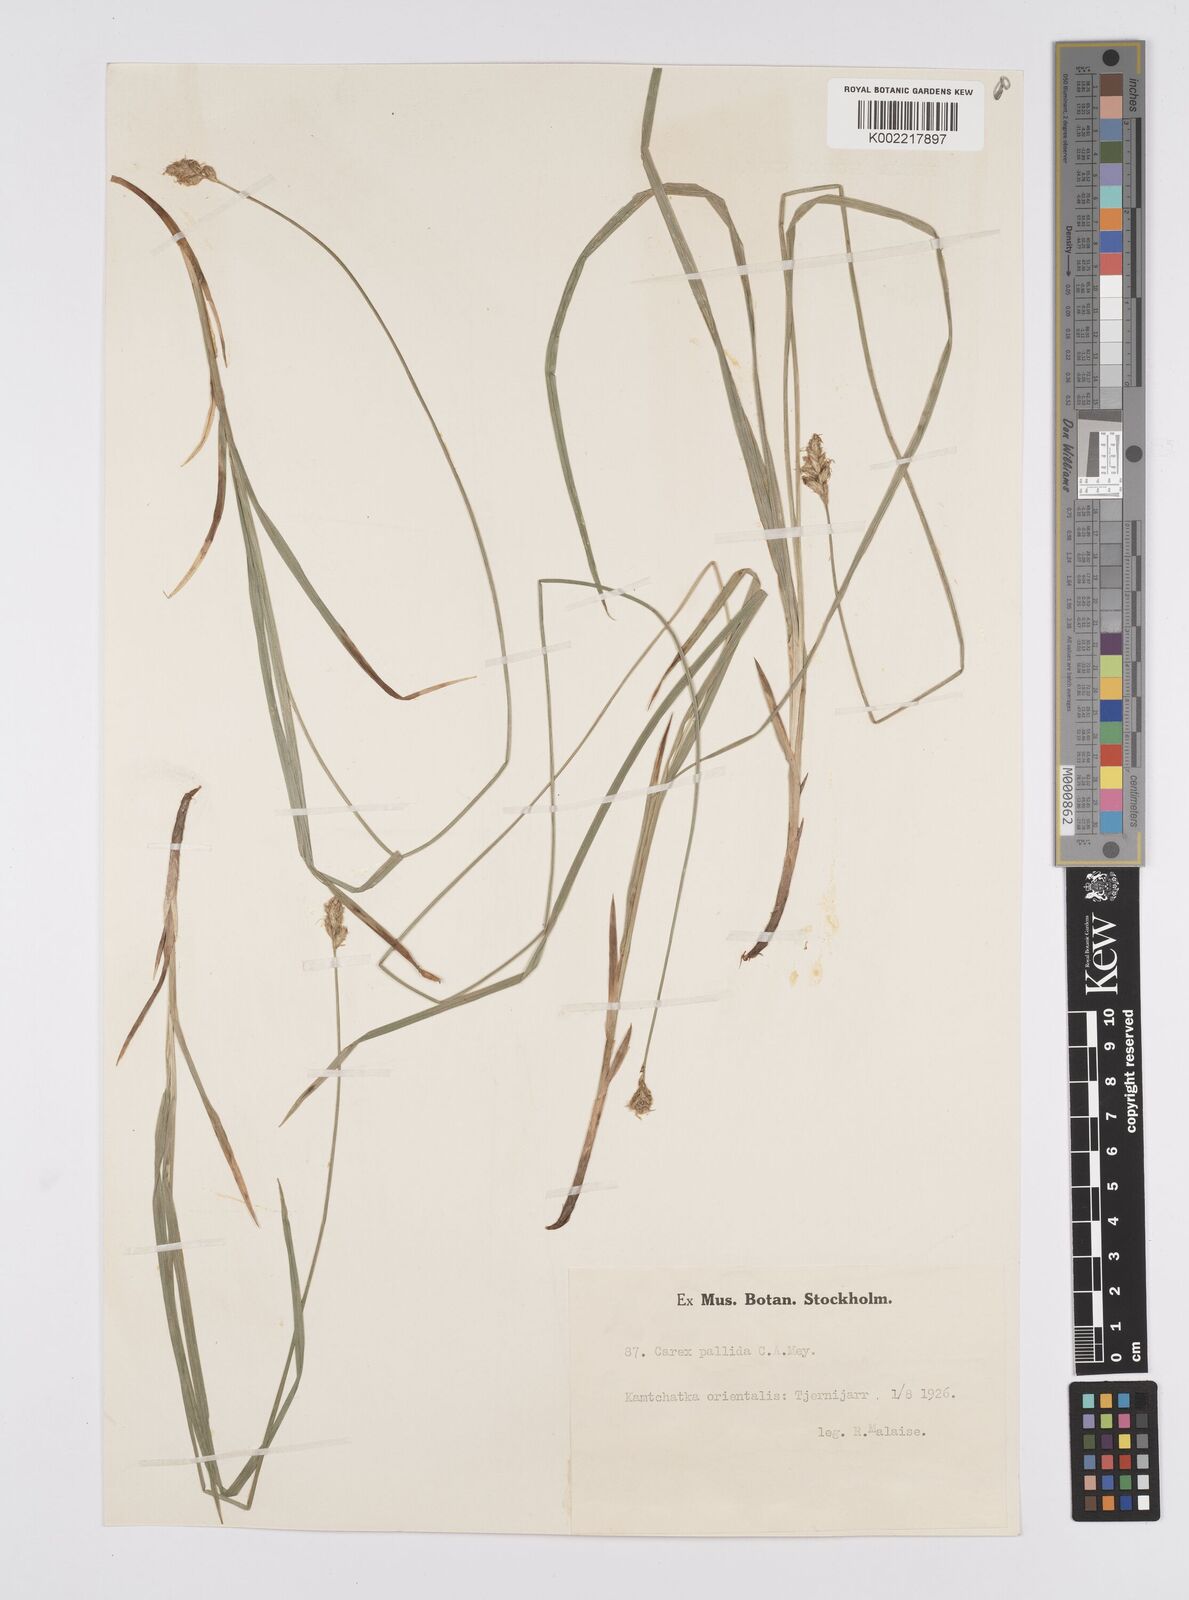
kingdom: Plantae
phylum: Tracheophyta
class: Liliopsida
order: Poales
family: Cyperaceae
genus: Carex
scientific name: Carex accrescens
